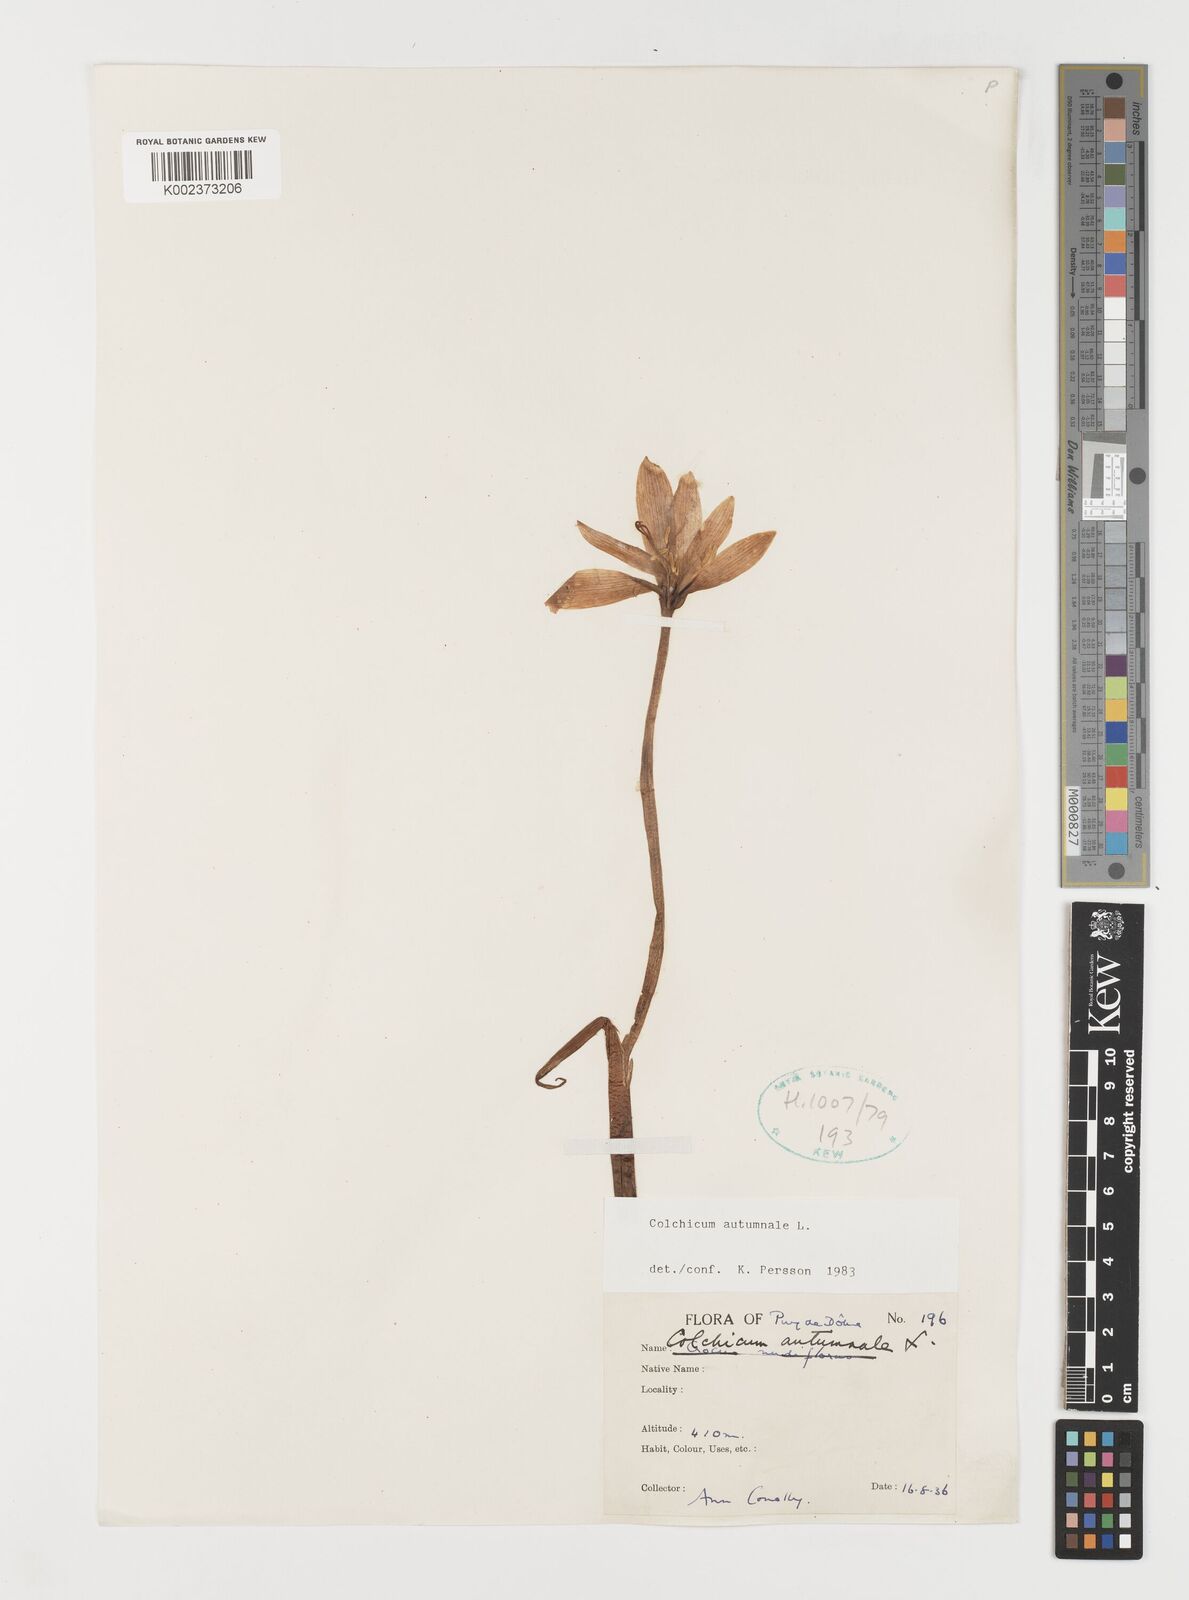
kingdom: Plantae
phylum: Tracheophyta
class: Liliopsida
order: Liliales
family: Colchicaceae
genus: Colchicum
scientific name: Colchicum autumnale
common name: Autumn crocus
